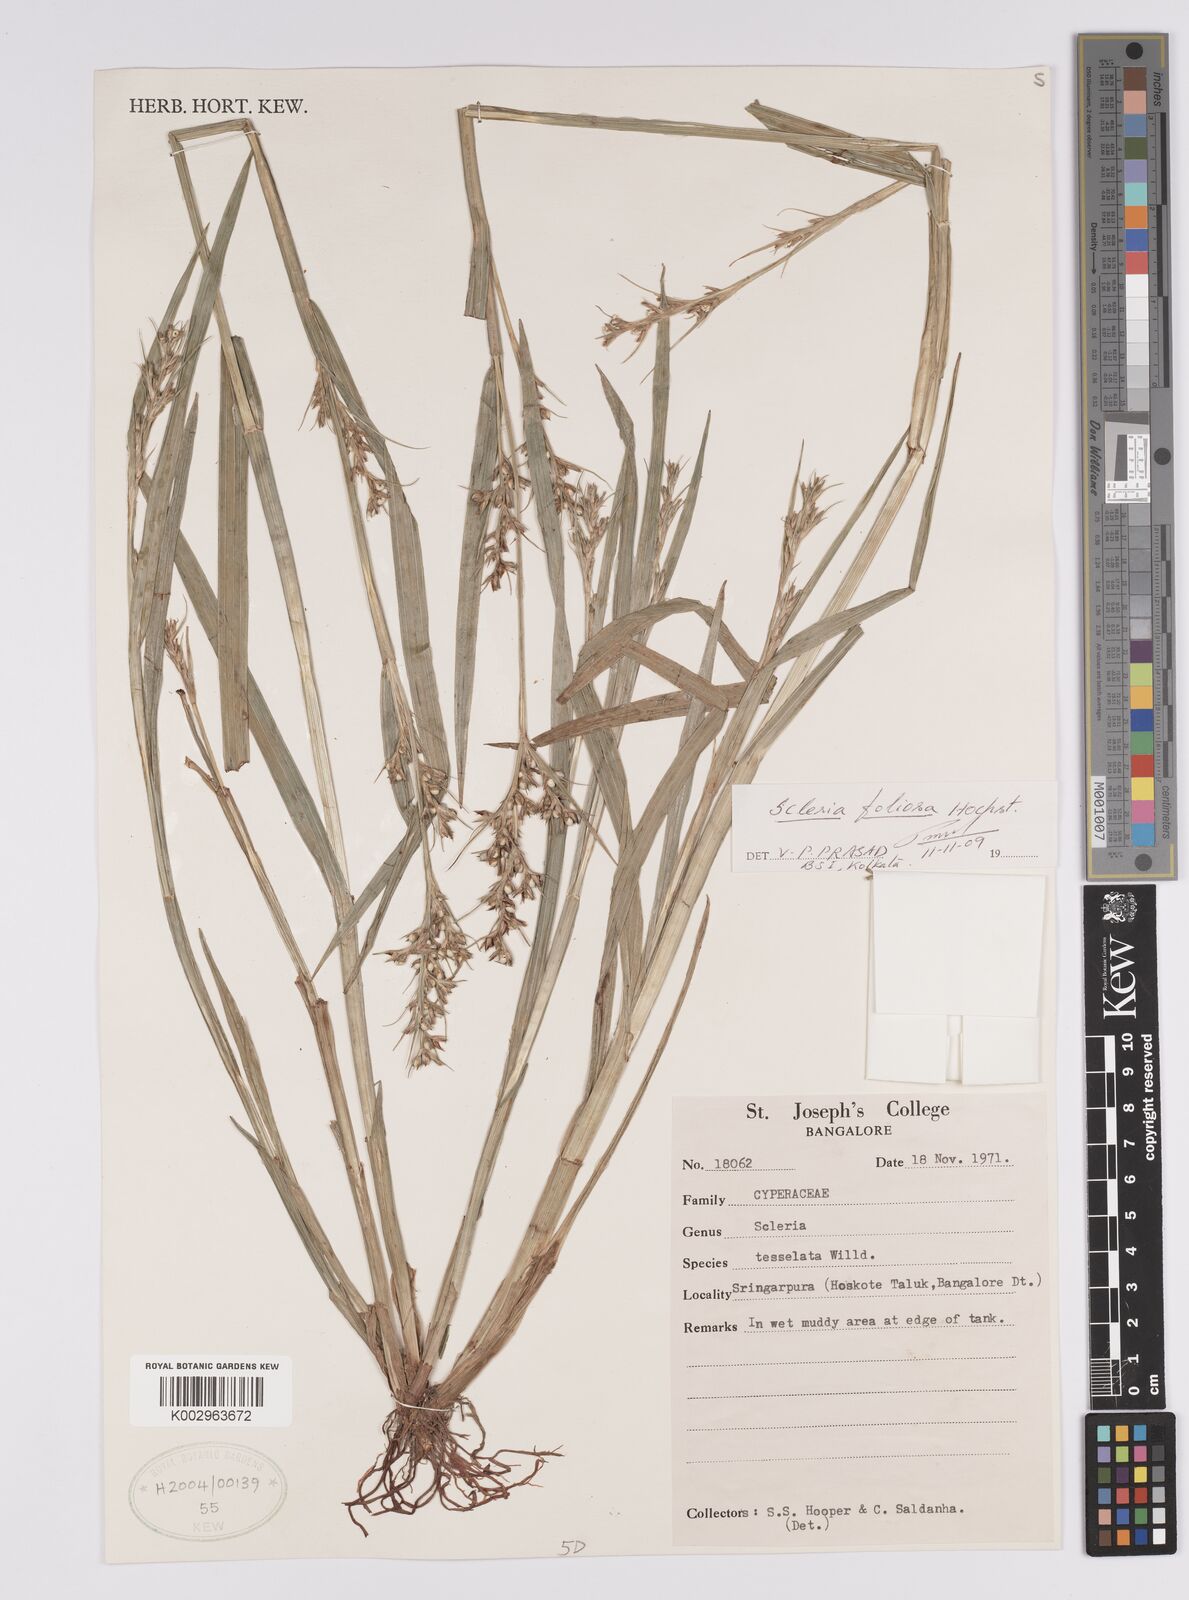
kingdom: Plantae
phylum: Tracheophyta
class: Liliopsida
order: Poales
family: Cyperaceae
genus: Scleria
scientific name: Scleria tessellata
